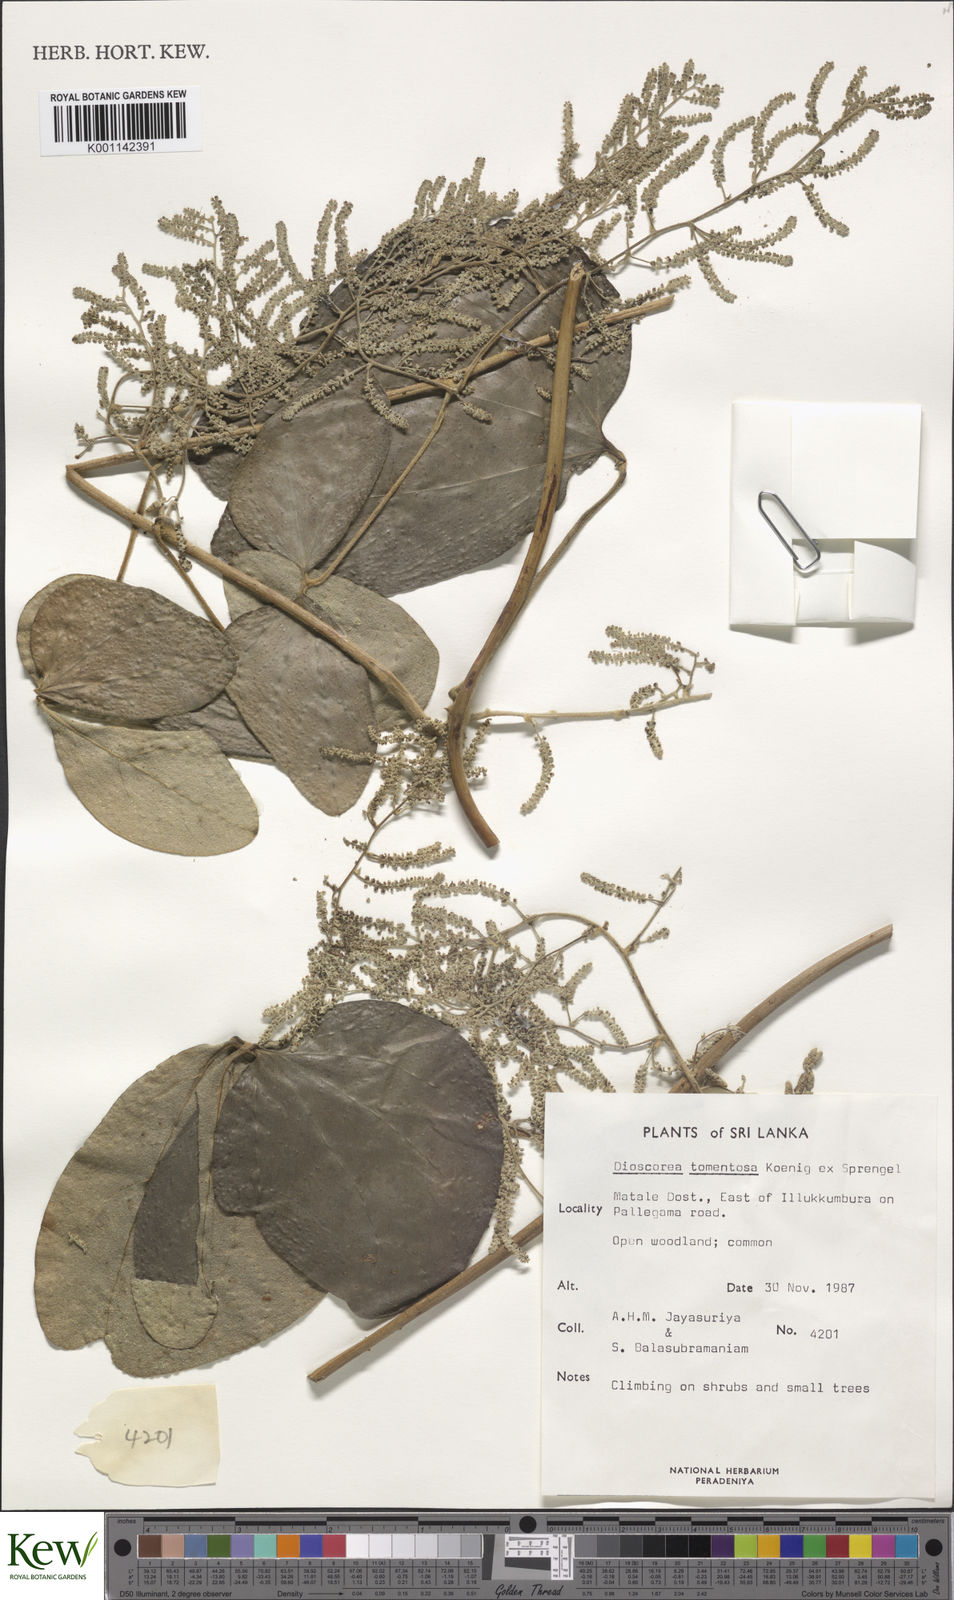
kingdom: Plantae
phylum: Tracheophyta
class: Liliopsida
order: Dioscoreales
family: Dioscoreaceae
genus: Dioscorea
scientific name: Dioscorea
